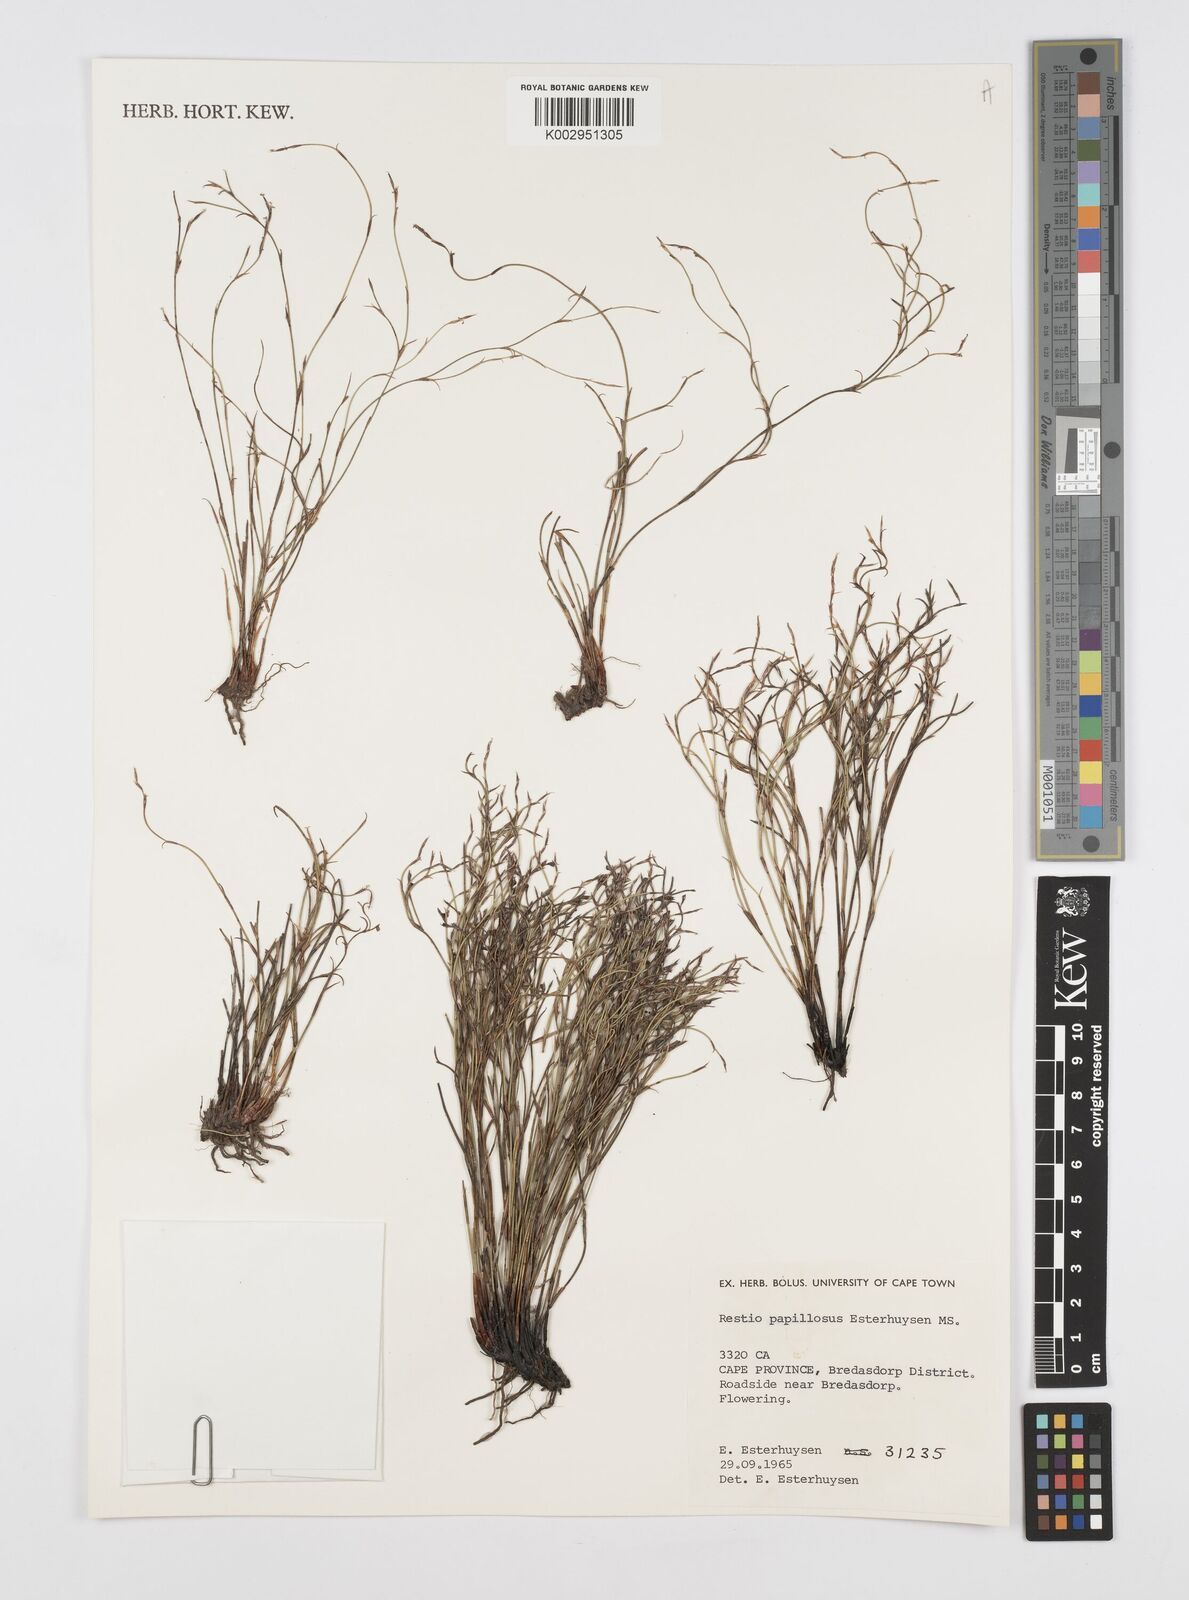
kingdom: Plantae
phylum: Tracheophyta
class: Liliopsida
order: Poales
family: Restionaceae
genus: Restio
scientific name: Restio papillosus
